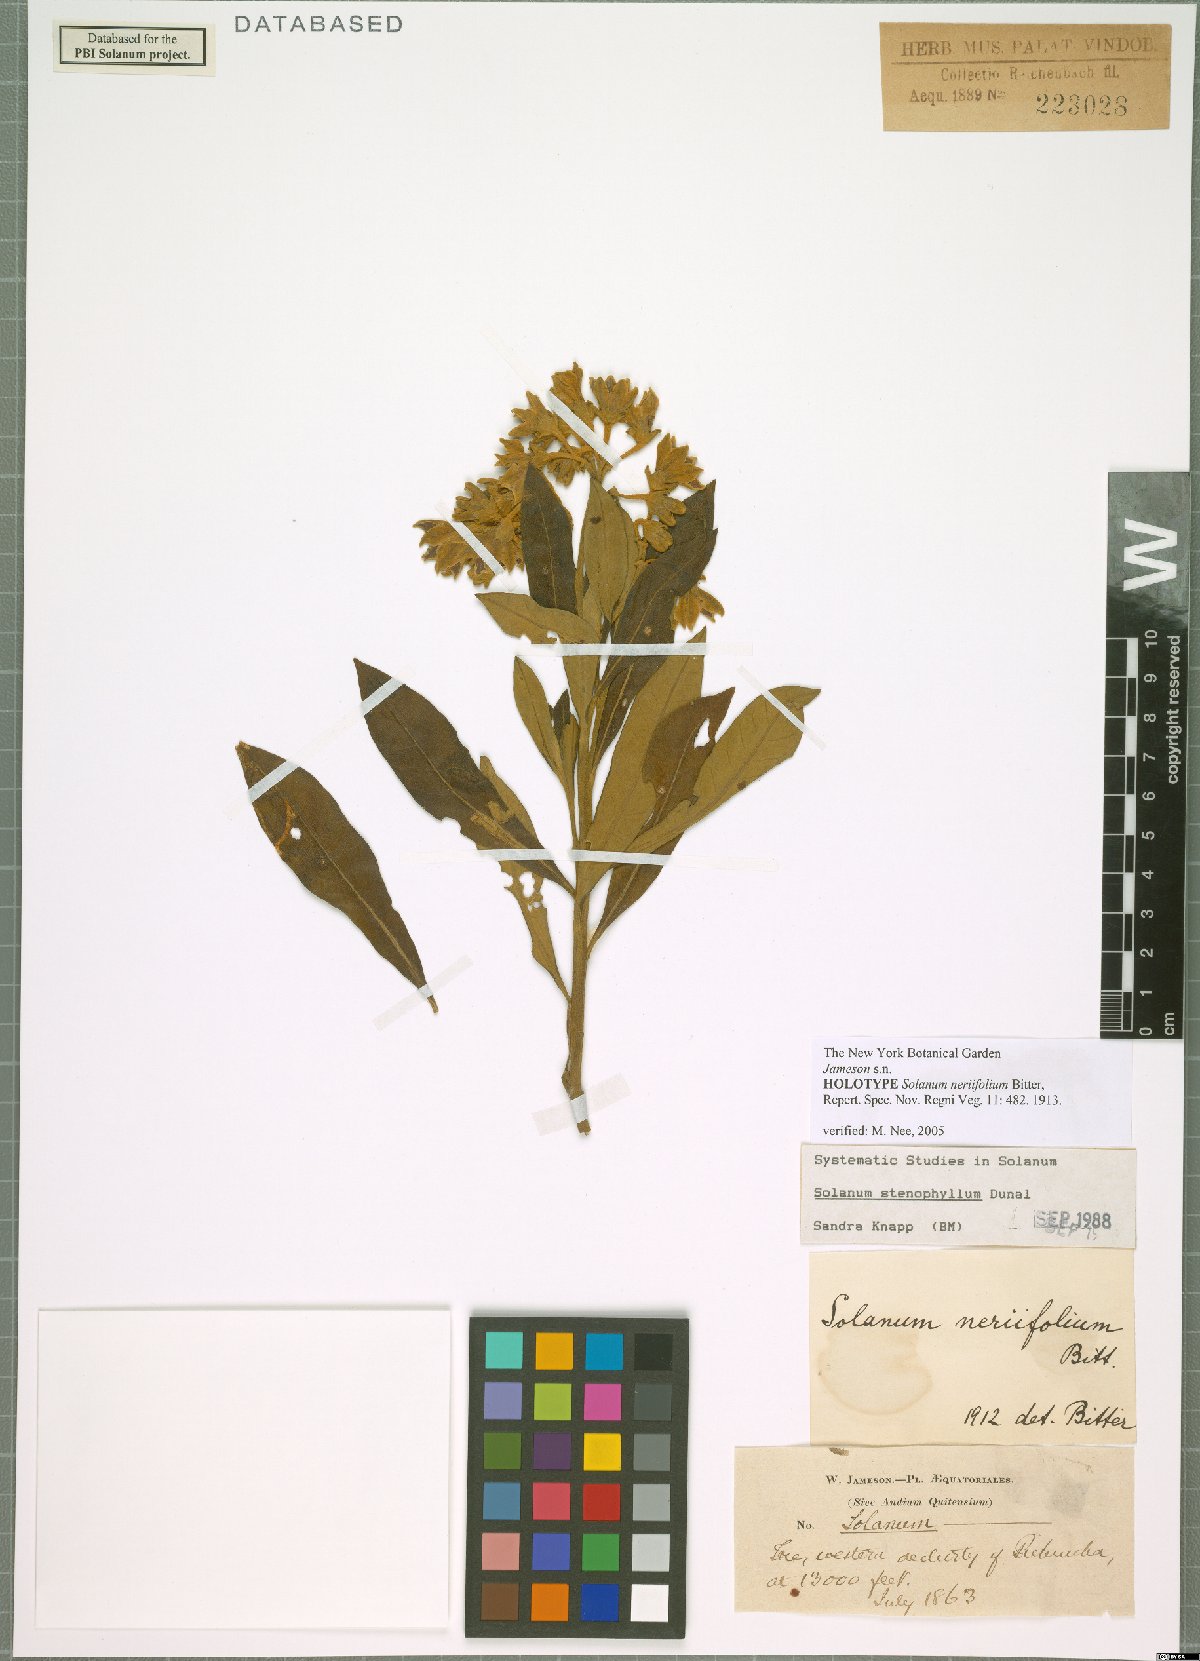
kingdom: Plantae
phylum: Tracheophyta
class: Magnoliopsida
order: Solanales
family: Solanaceae
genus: Solanum
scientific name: Solanum stenophyllum
